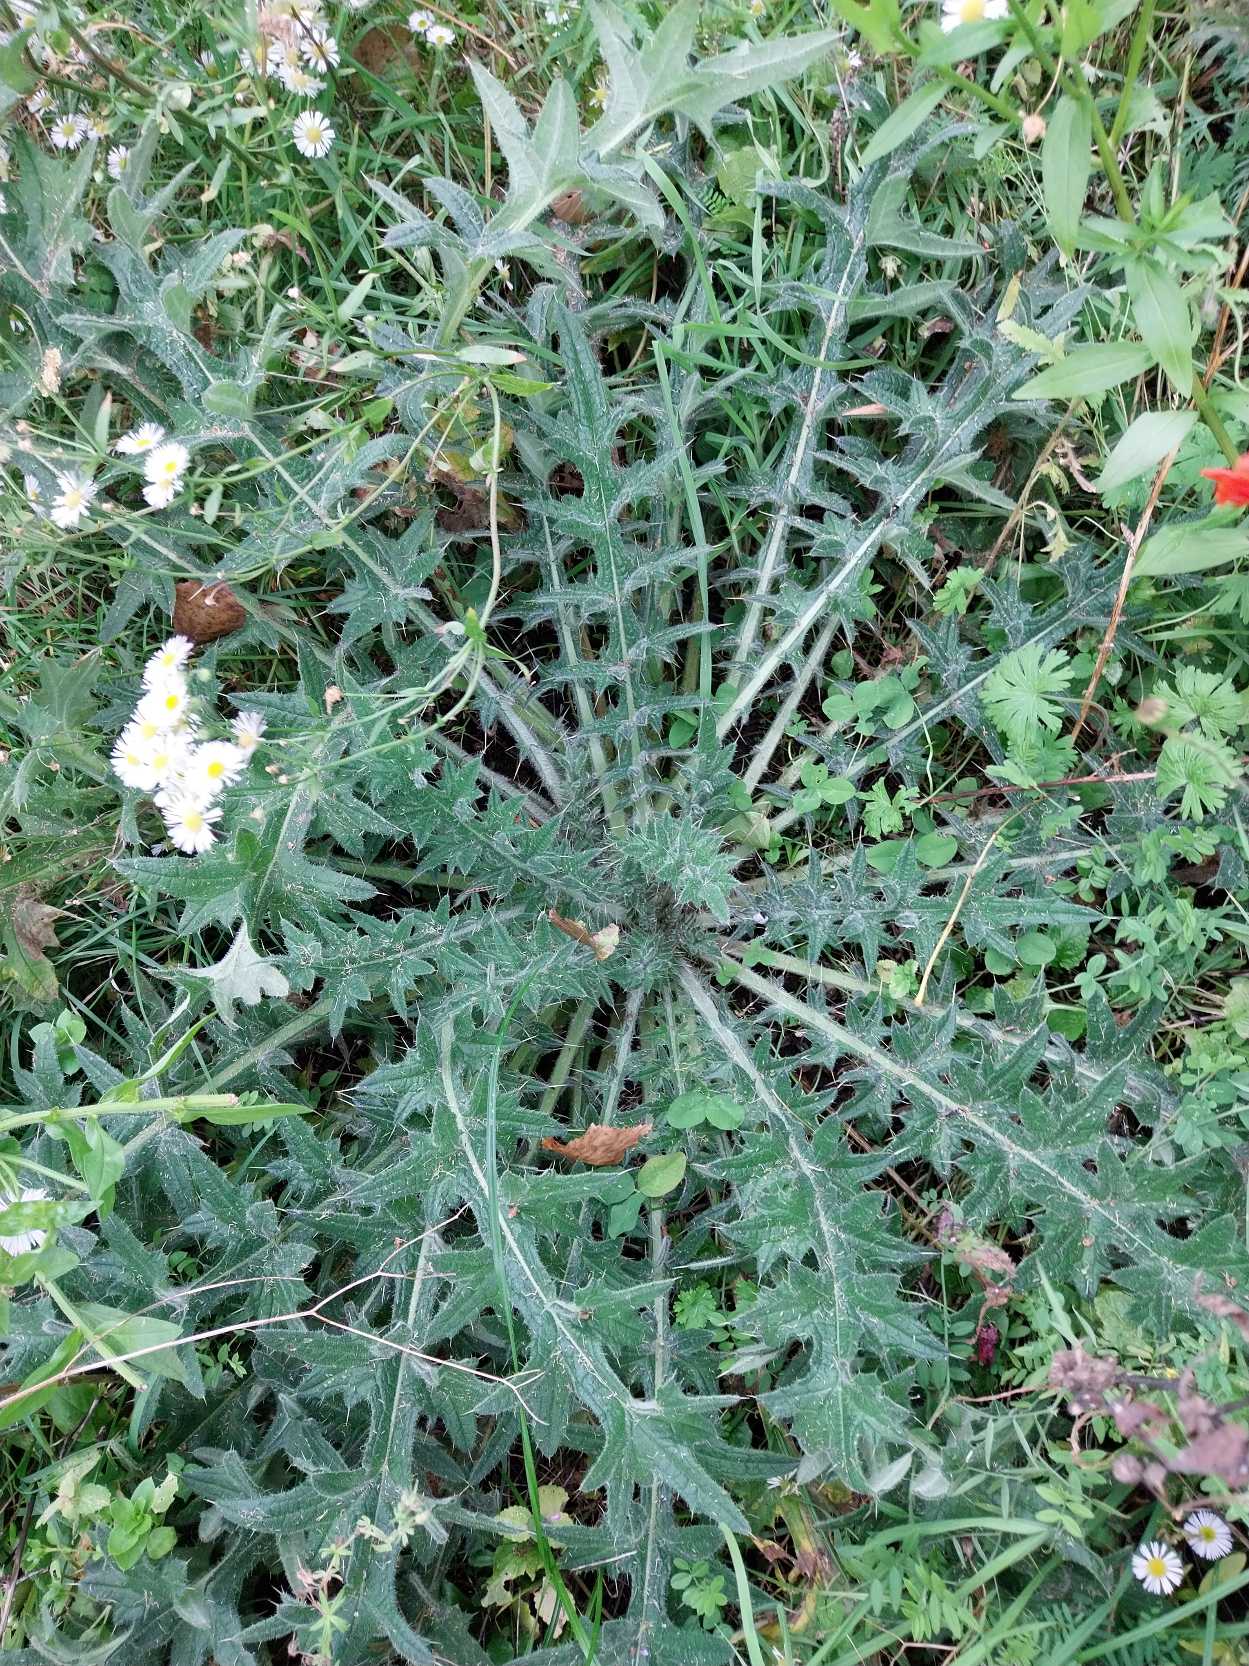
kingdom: Plantae
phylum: Tracheophyta
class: Magnoliopsida
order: Asterales
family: Asteraceae
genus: Cirsium
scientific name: Cirsium vulgare
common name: Horse-tidsel
